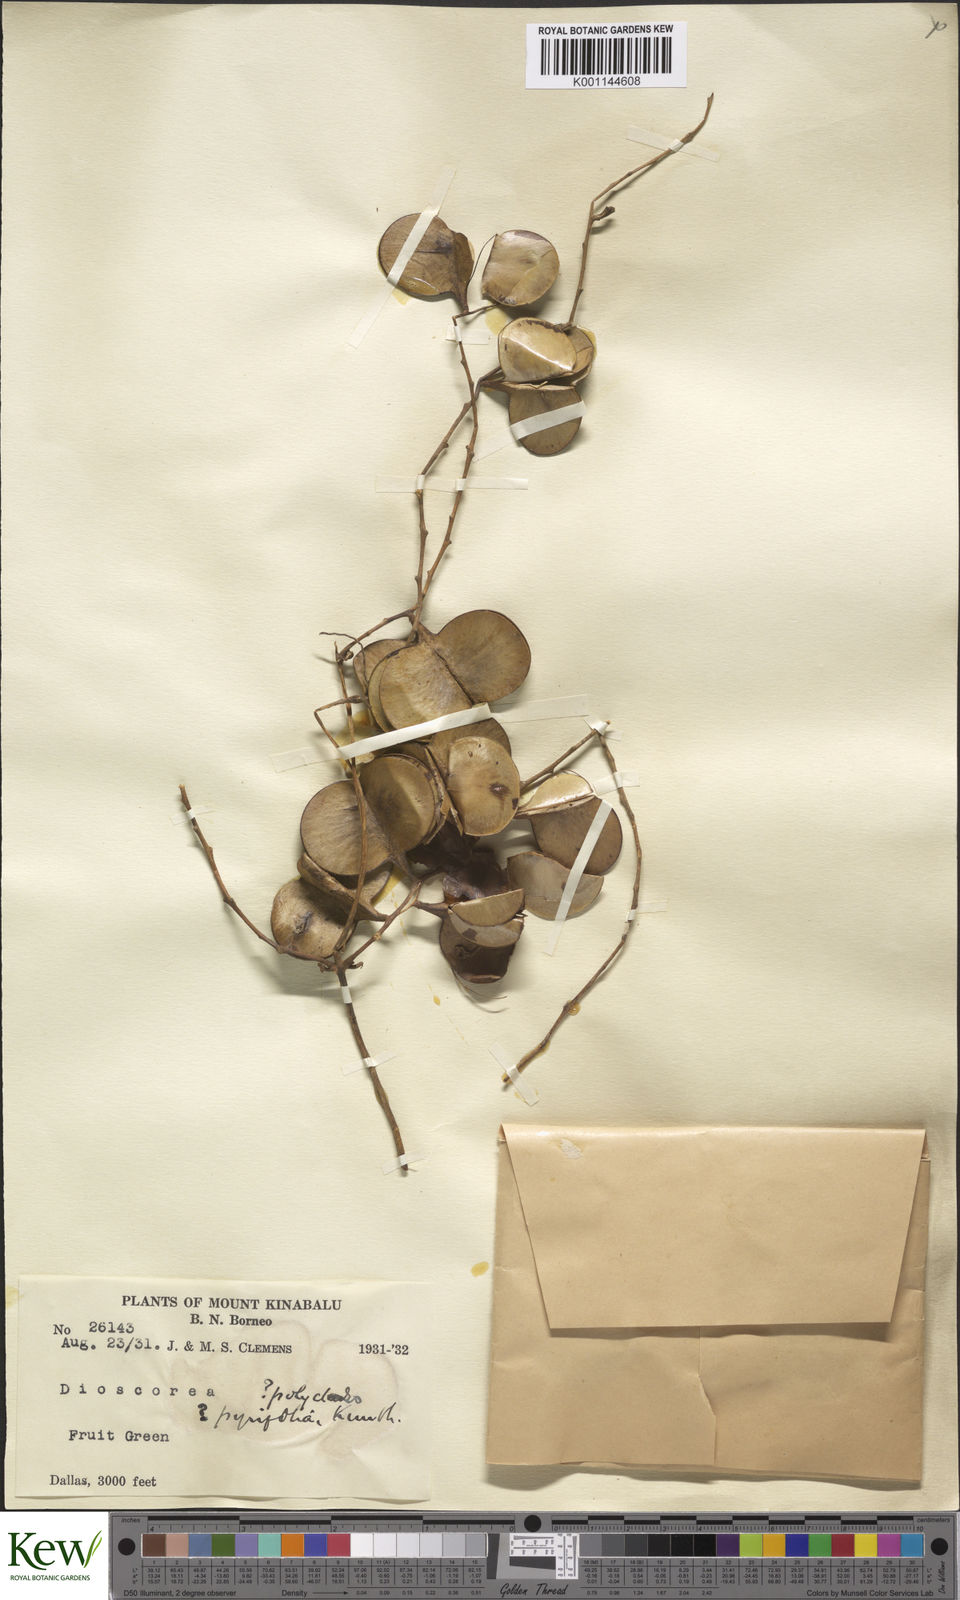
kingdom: Plantae
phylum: Tracheophyta
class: Liliopsida
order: Dioscoreales
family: Dioscoreaceae
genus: Dioscorea
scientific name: Dioscorea pyrifolia
